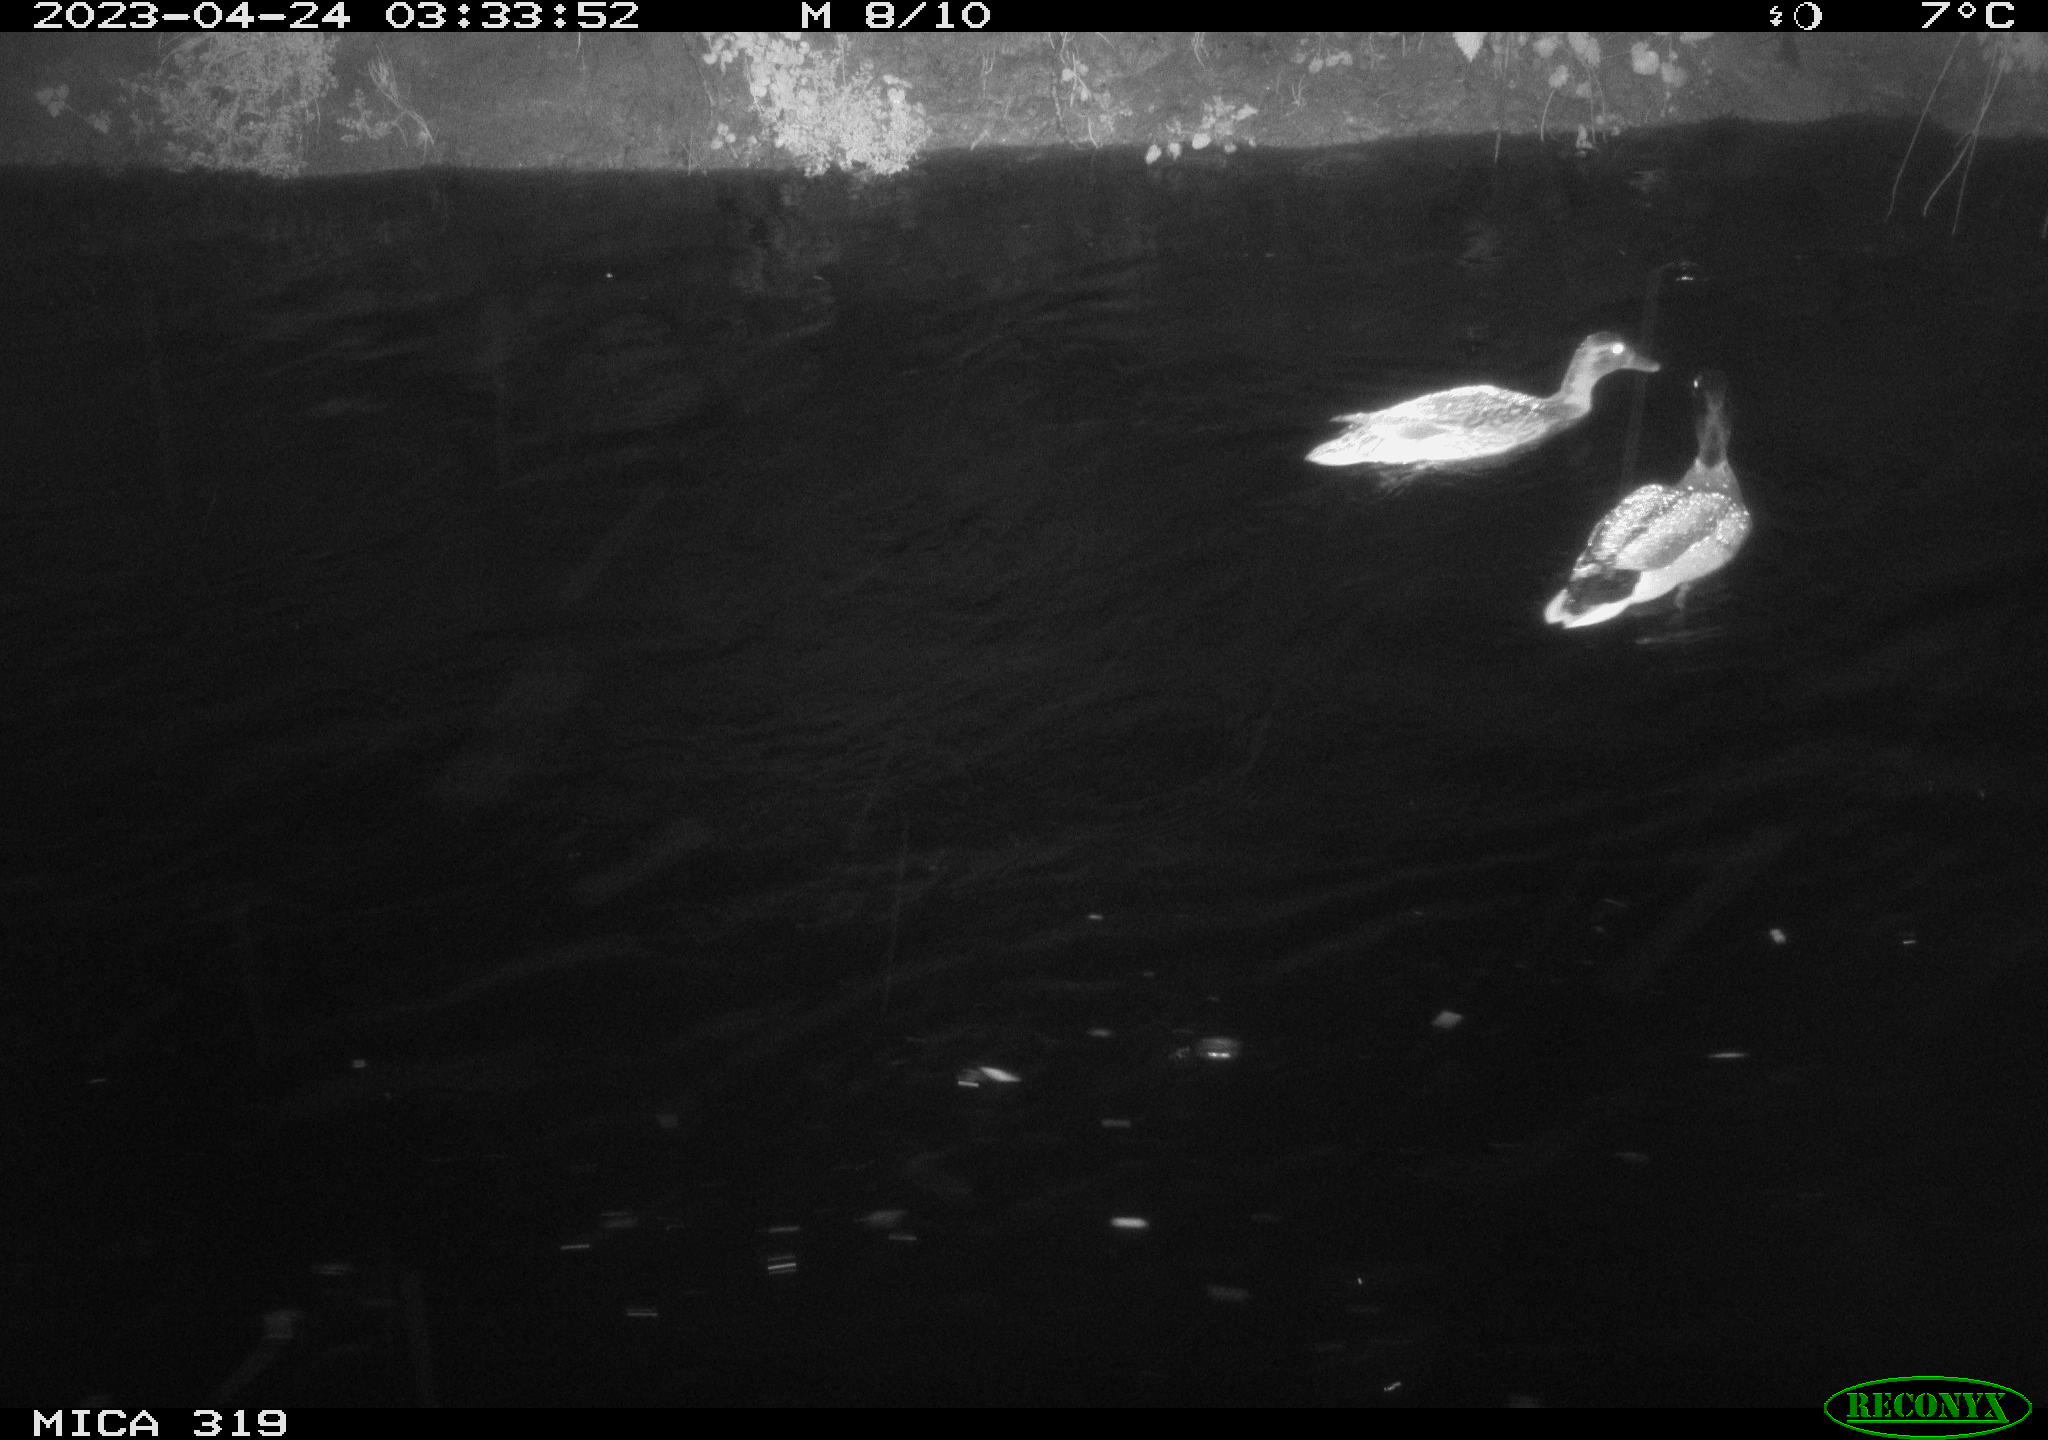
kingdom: Animalia
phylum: Chordata
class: Aves
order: Anseriformes
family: Anatidae
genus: Anas
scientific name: Anas
